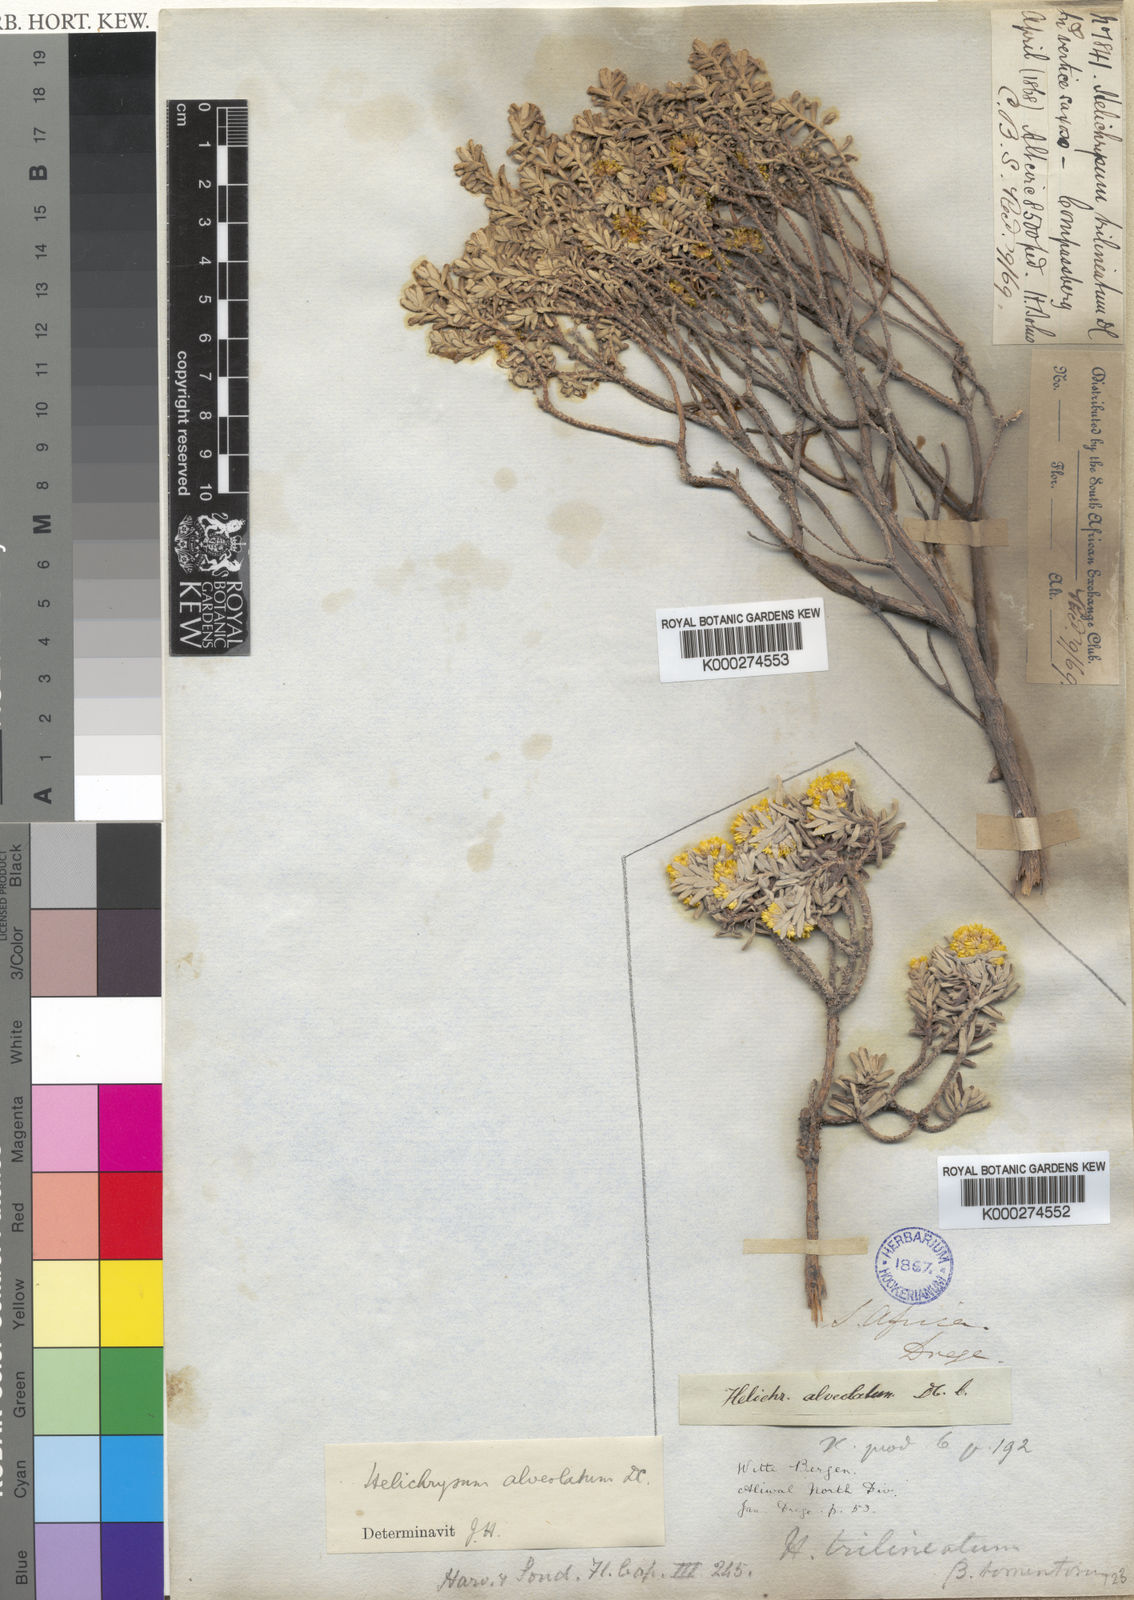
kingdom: Plantae
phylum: Tracheophyta
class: Magnoliopsida
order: Asterales
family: Asteraceae
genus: Helichrysum
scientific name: Helichrysum trilineatum
